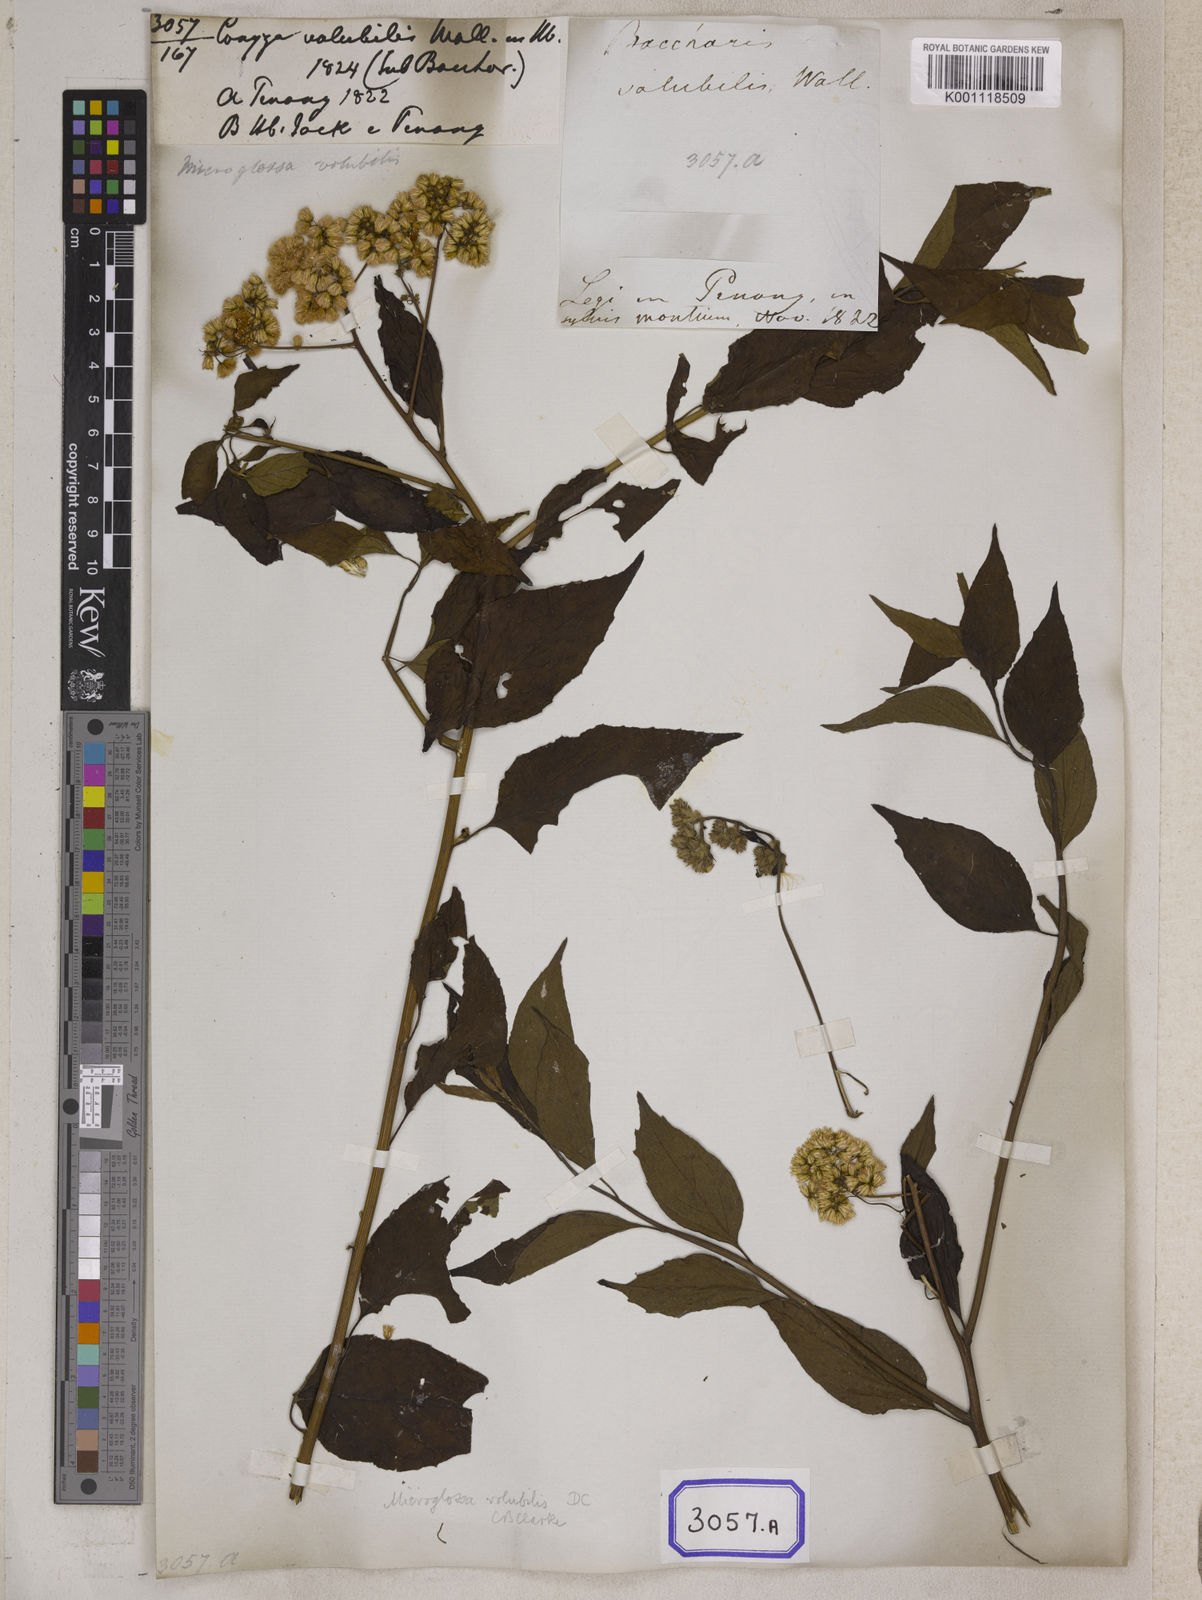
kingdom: Plantae
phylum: Tracheophyta
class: Magnoliopsida
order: Asterales
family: Asteraceae
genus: Microglossa
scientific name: Microglossa pyrifolia
